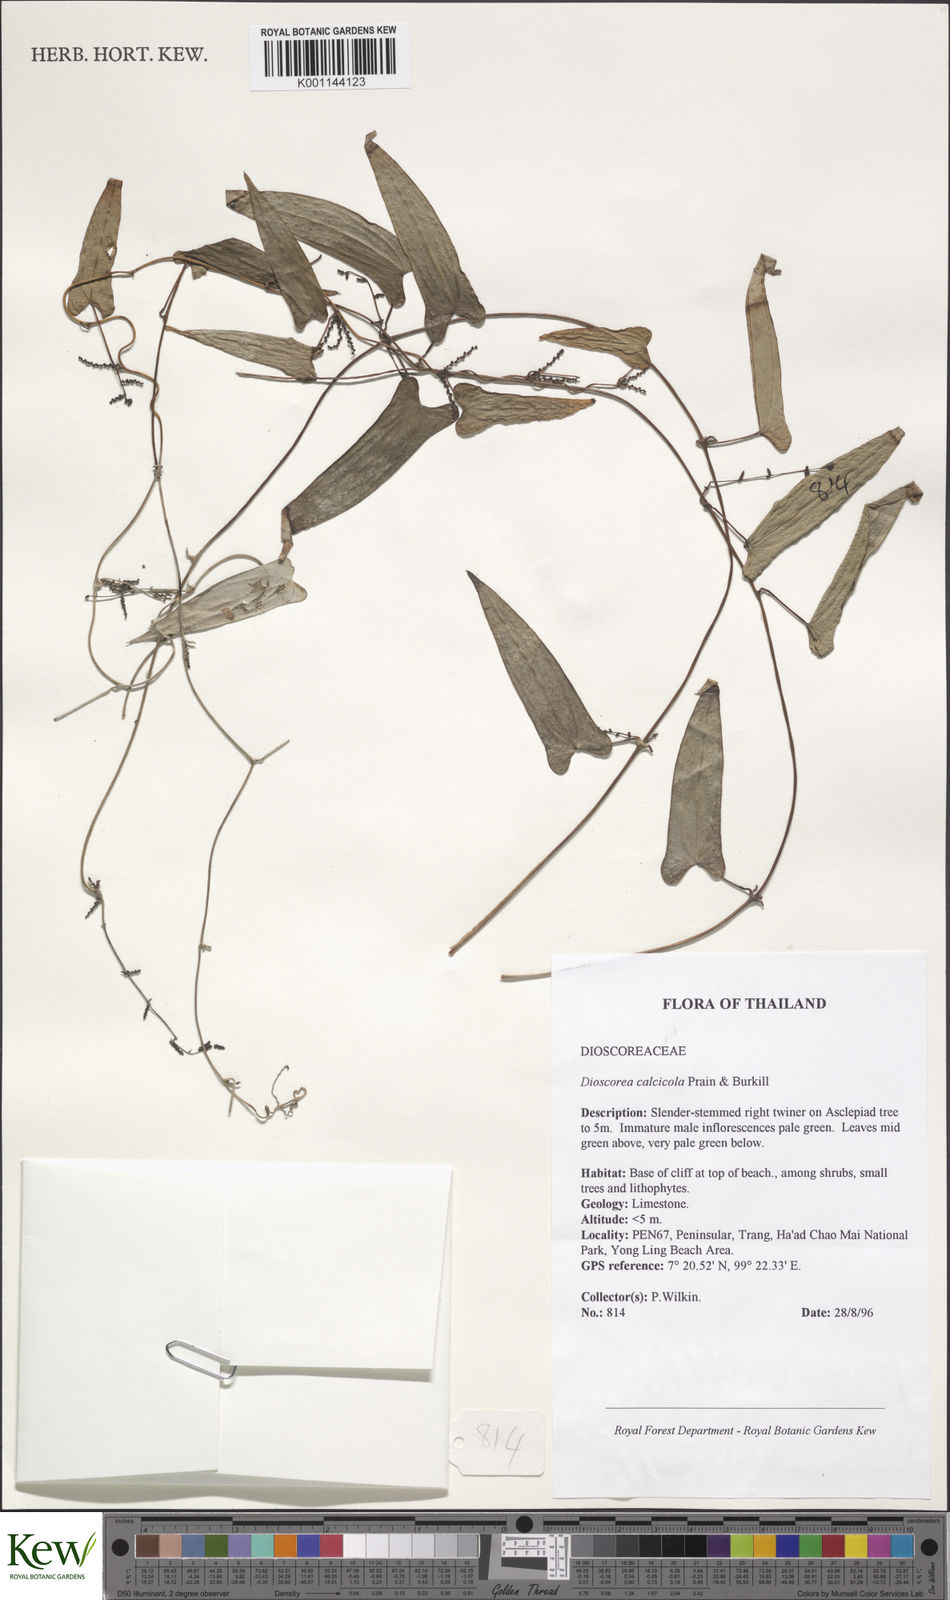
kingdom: Plantae
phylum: Tracheophyta
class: Liliopsida
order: Dioscoreales
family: Dioscoreaceae
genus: Dioscorea
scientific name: Dioscorea calcicola
